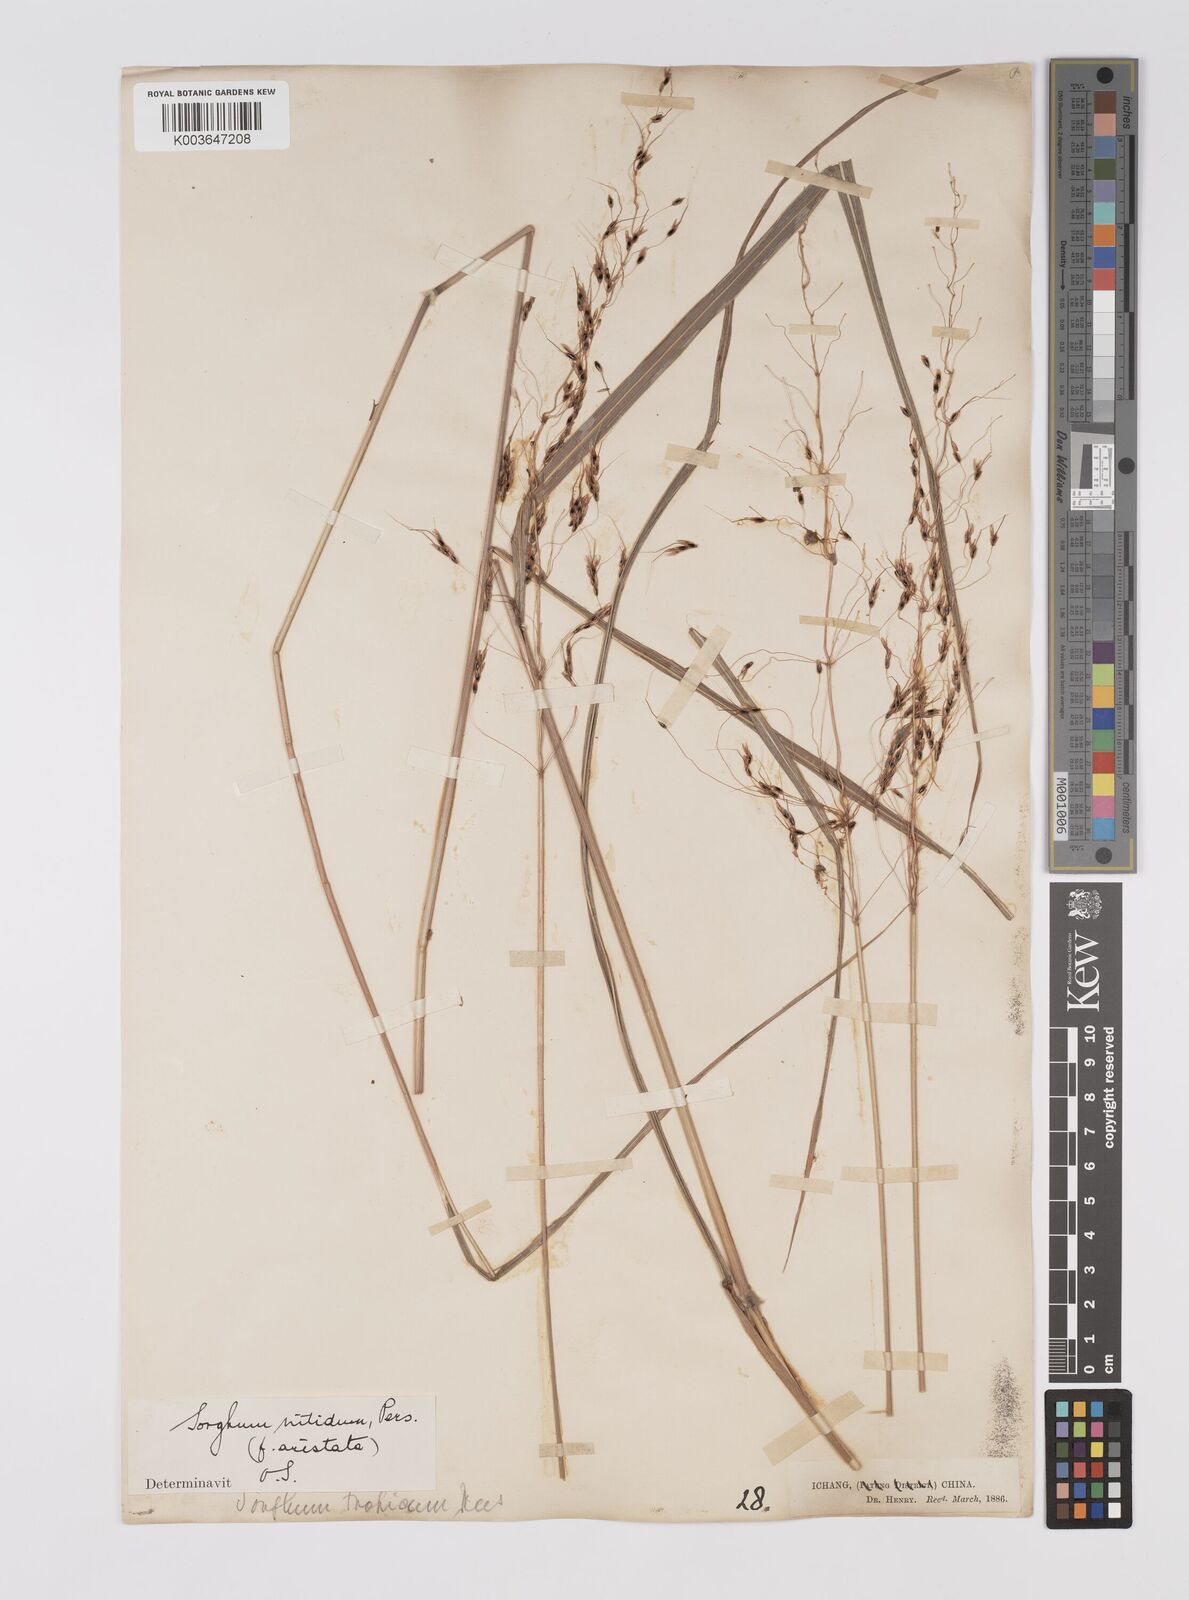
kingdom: Plantae
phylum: Tracheophyta
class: Liliopsida
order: Poales
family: Poaceae
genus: Sorghum
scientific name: Sorghum nitidum
